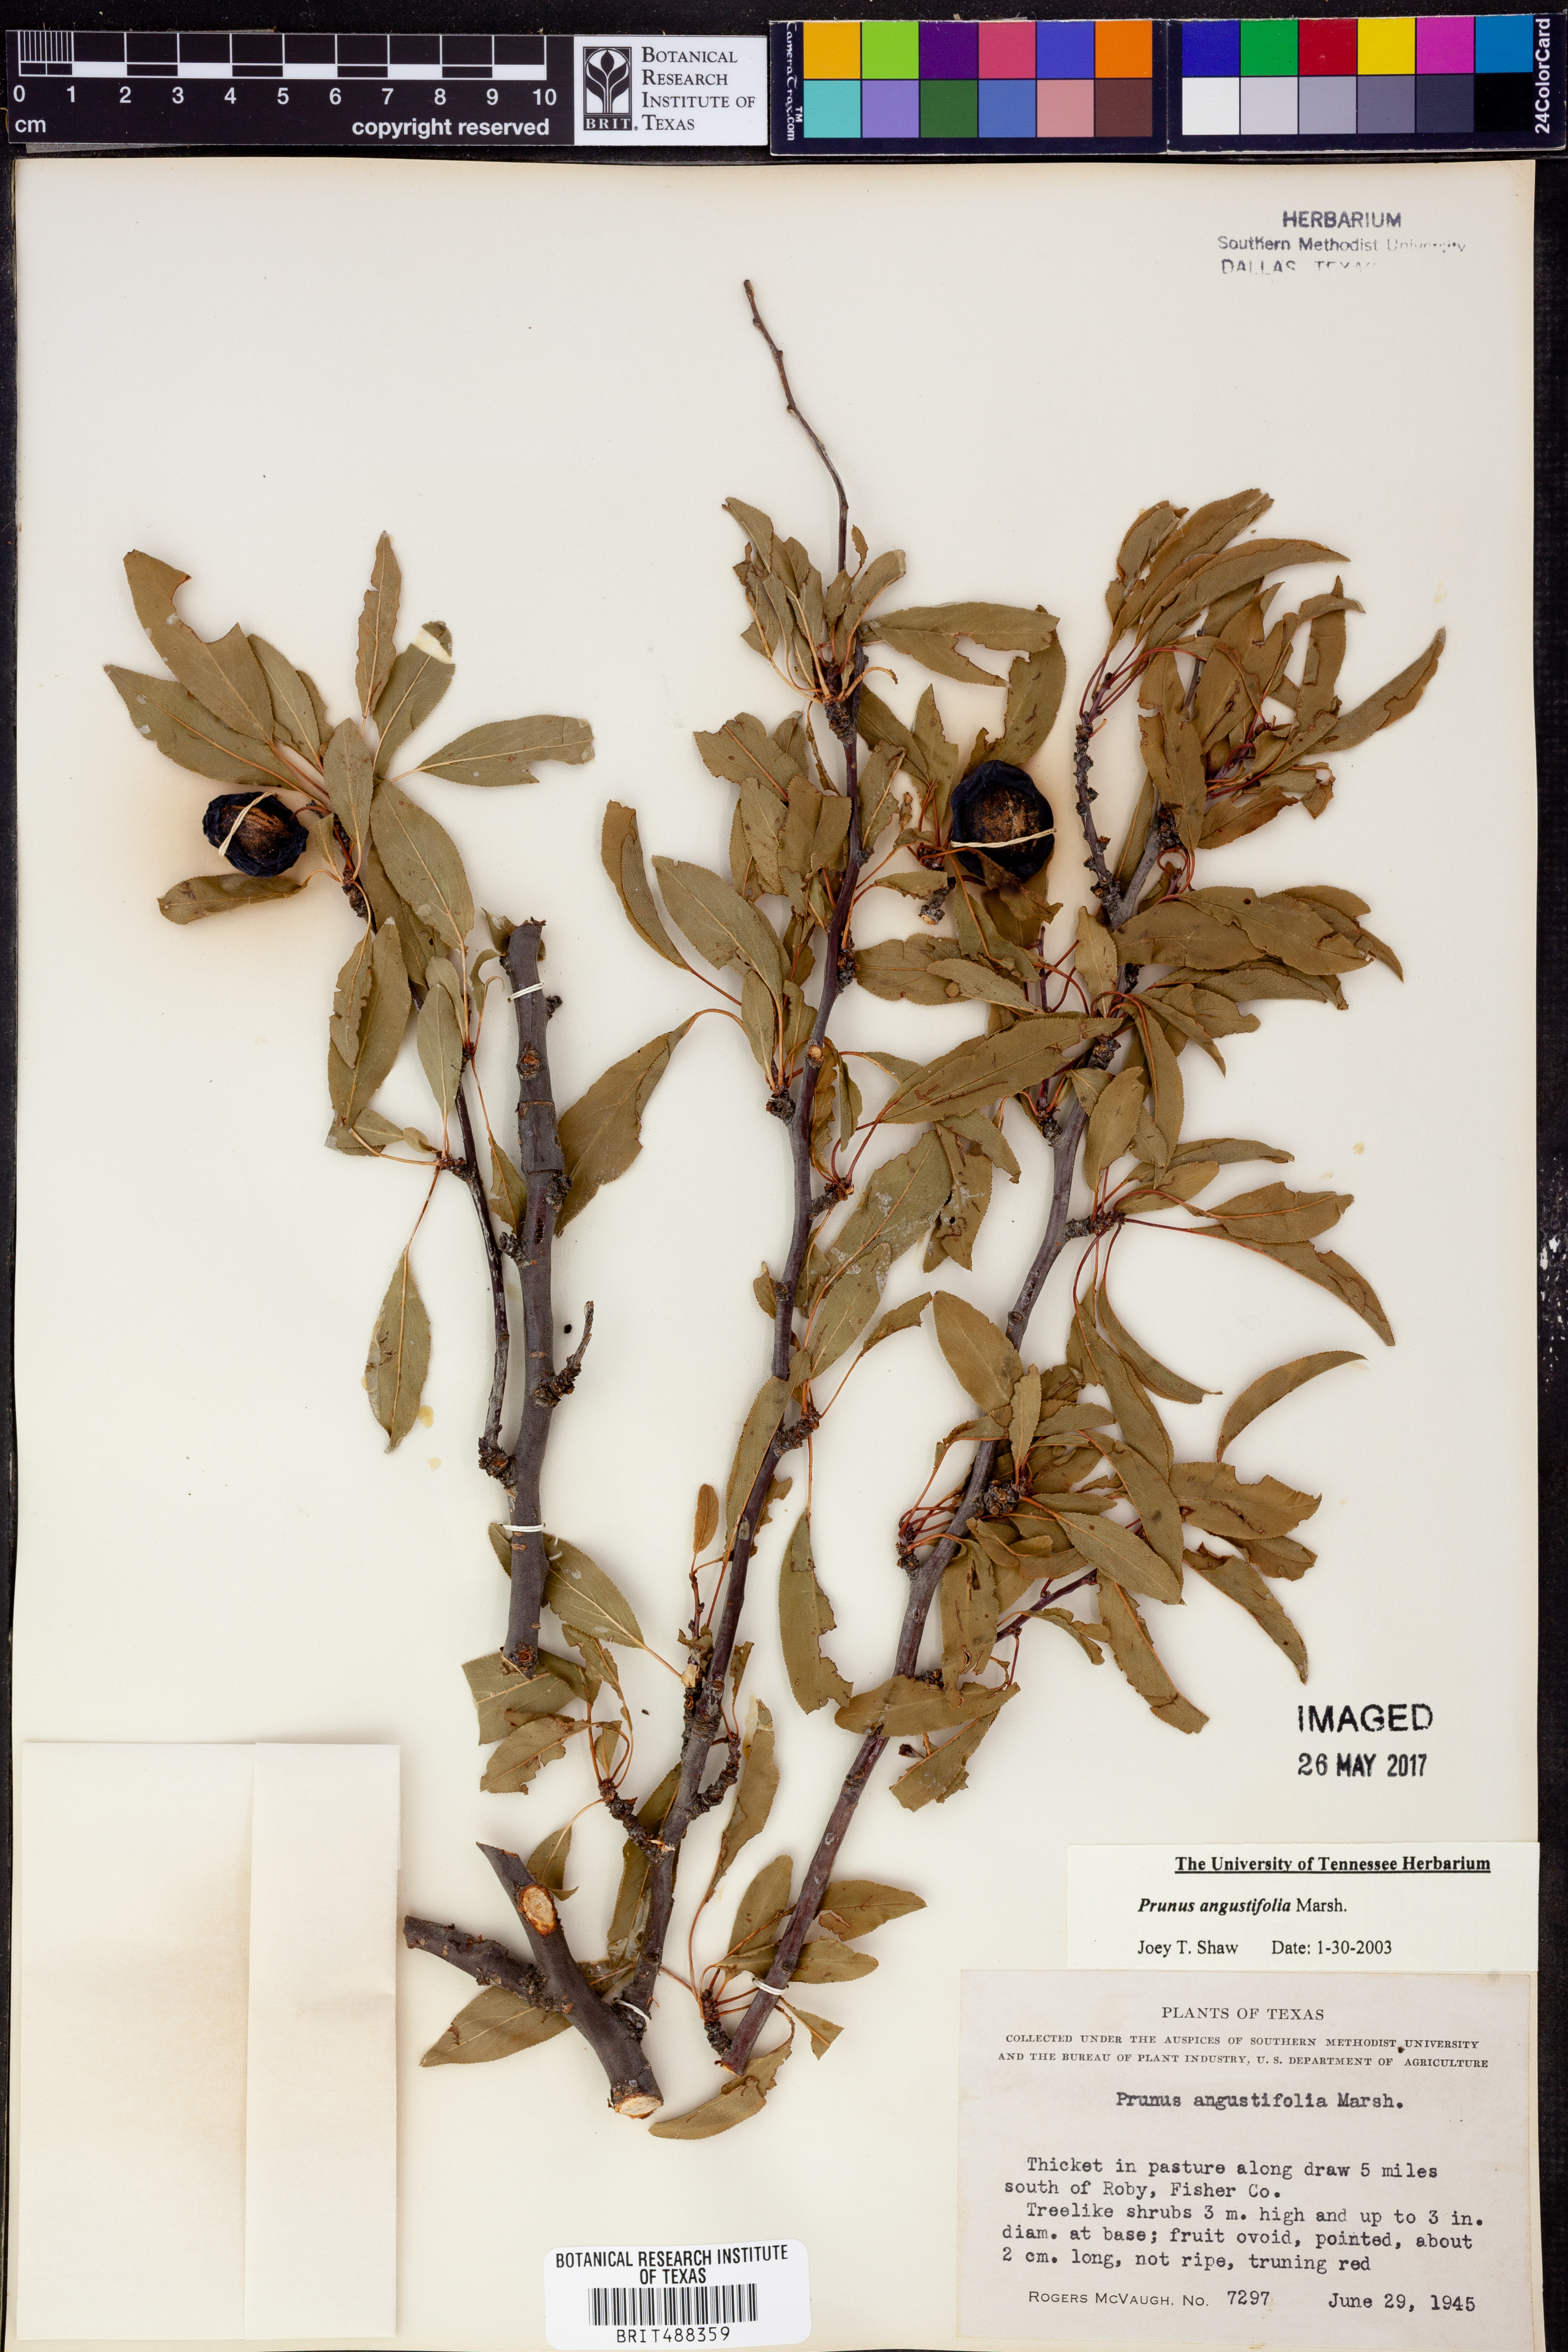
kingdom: Plantae
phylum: Tracheophyta
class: Magnoliopsida
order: Rosales
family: Rosaceae
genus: Prunus
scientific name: Prunus angustifolia
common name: Cherokee plum
